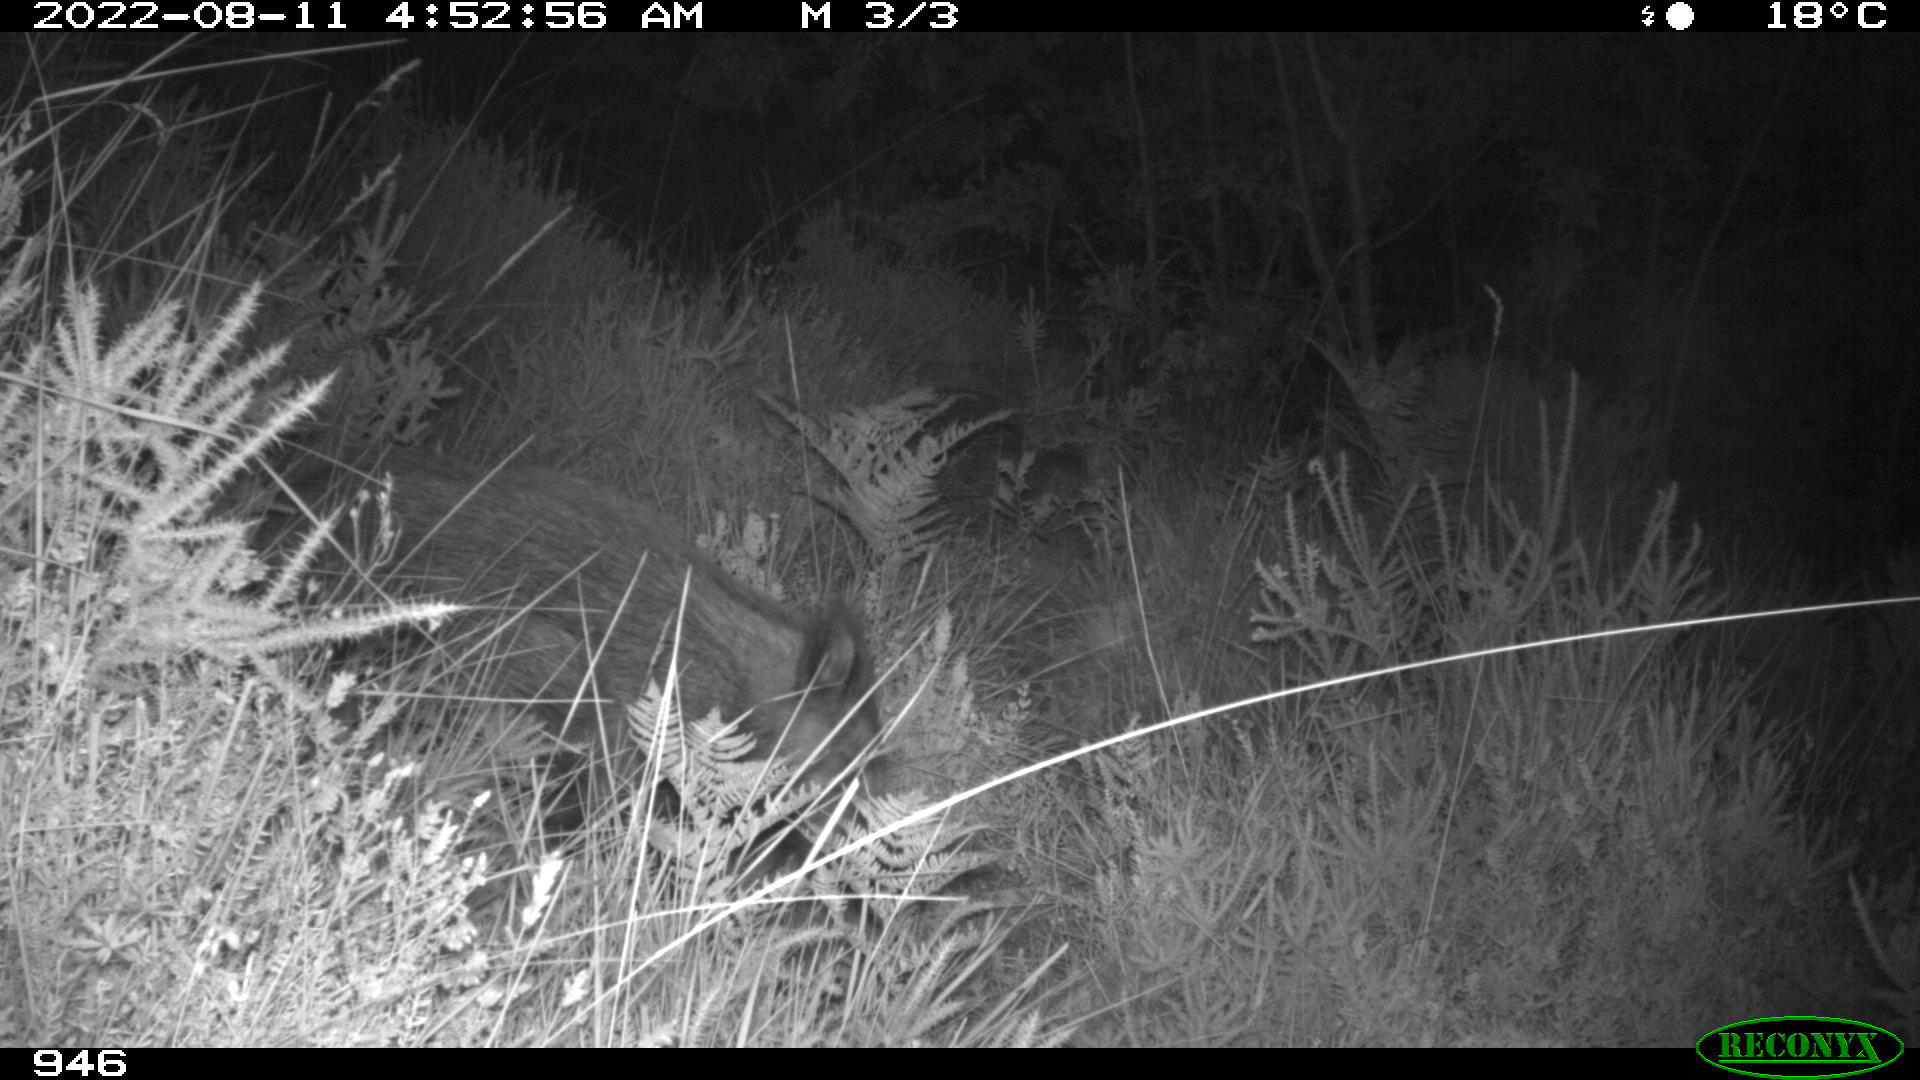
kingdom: Animalia
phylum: Chordata
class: Mammalia
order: Artiodactyla
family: Suidae
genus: Sus
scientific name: Sus scrofa
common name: Wild boar
